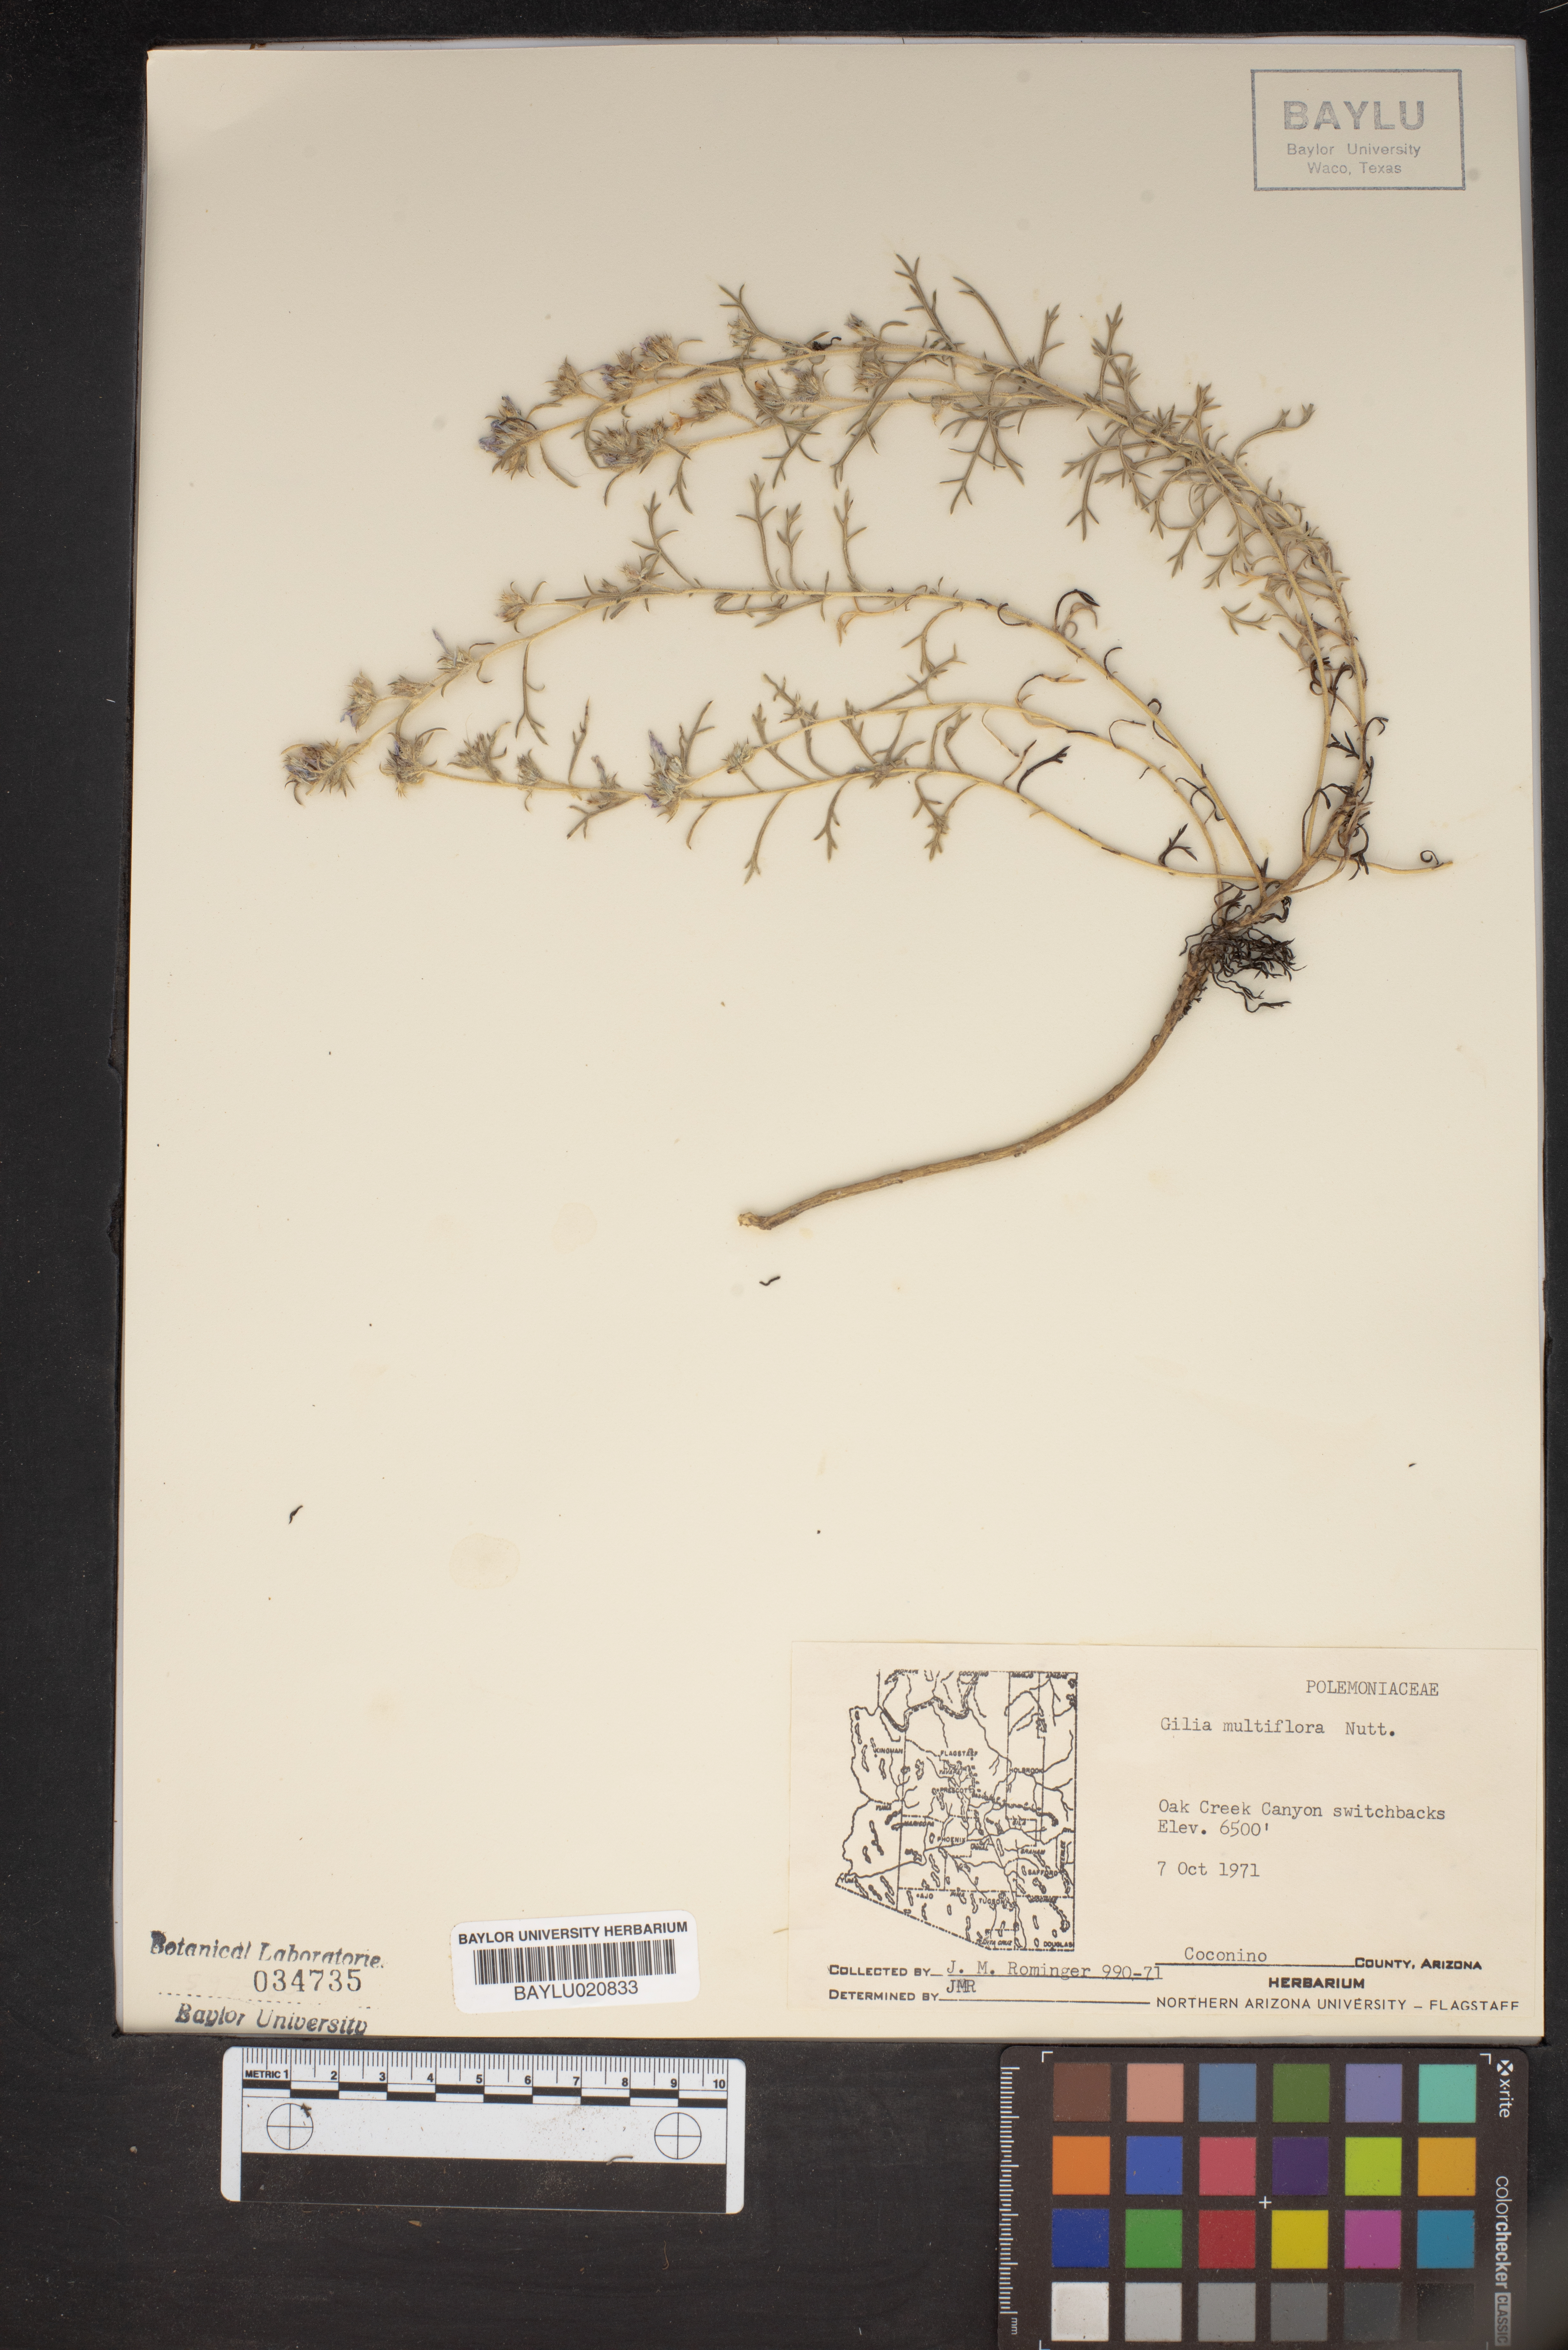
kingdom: Plantae
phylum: Tracheophyta
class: Magnoliopsida
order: Ericales
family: Polemoniaceae
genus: Ipomopsis
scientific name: Ipomopsis multiflora
